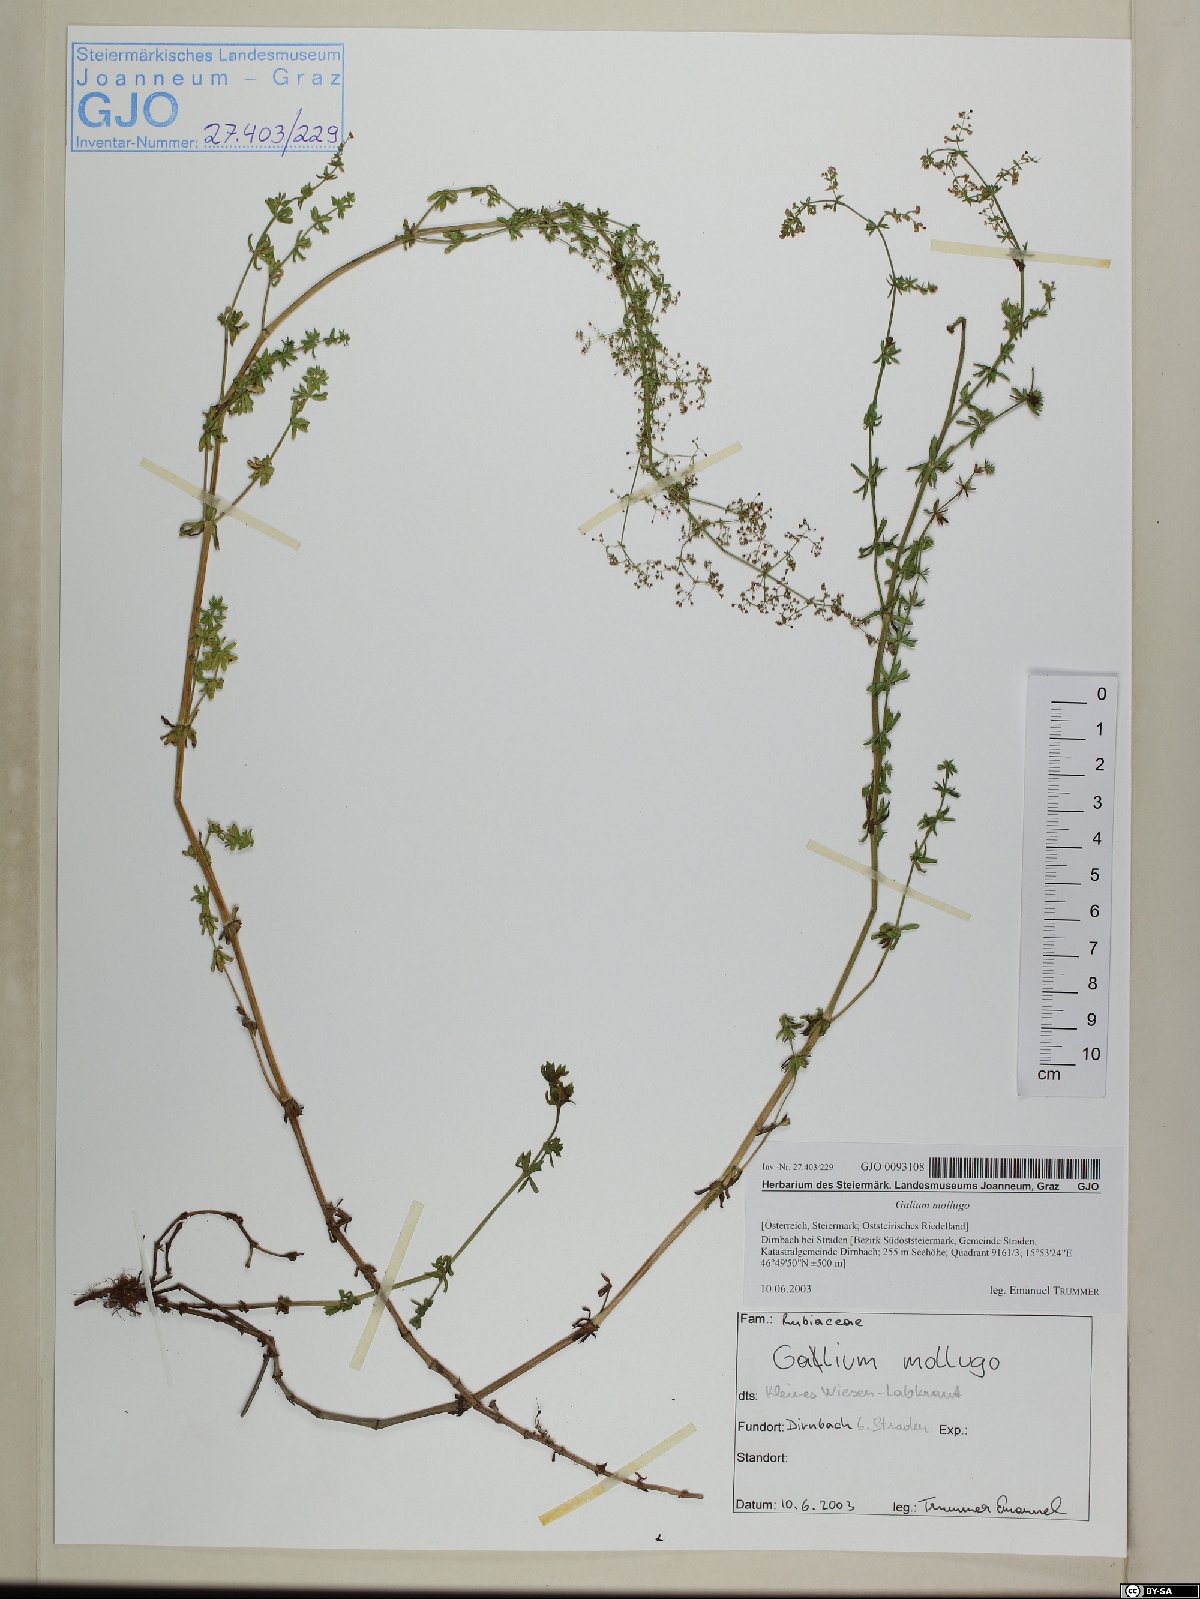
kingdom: Plantae
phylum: Tracheophyta
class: Magnoliopsida
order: Gentianales
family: Rubiaceae
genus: Galium
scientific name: Galium mollugo
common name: Hedge bedstraw
